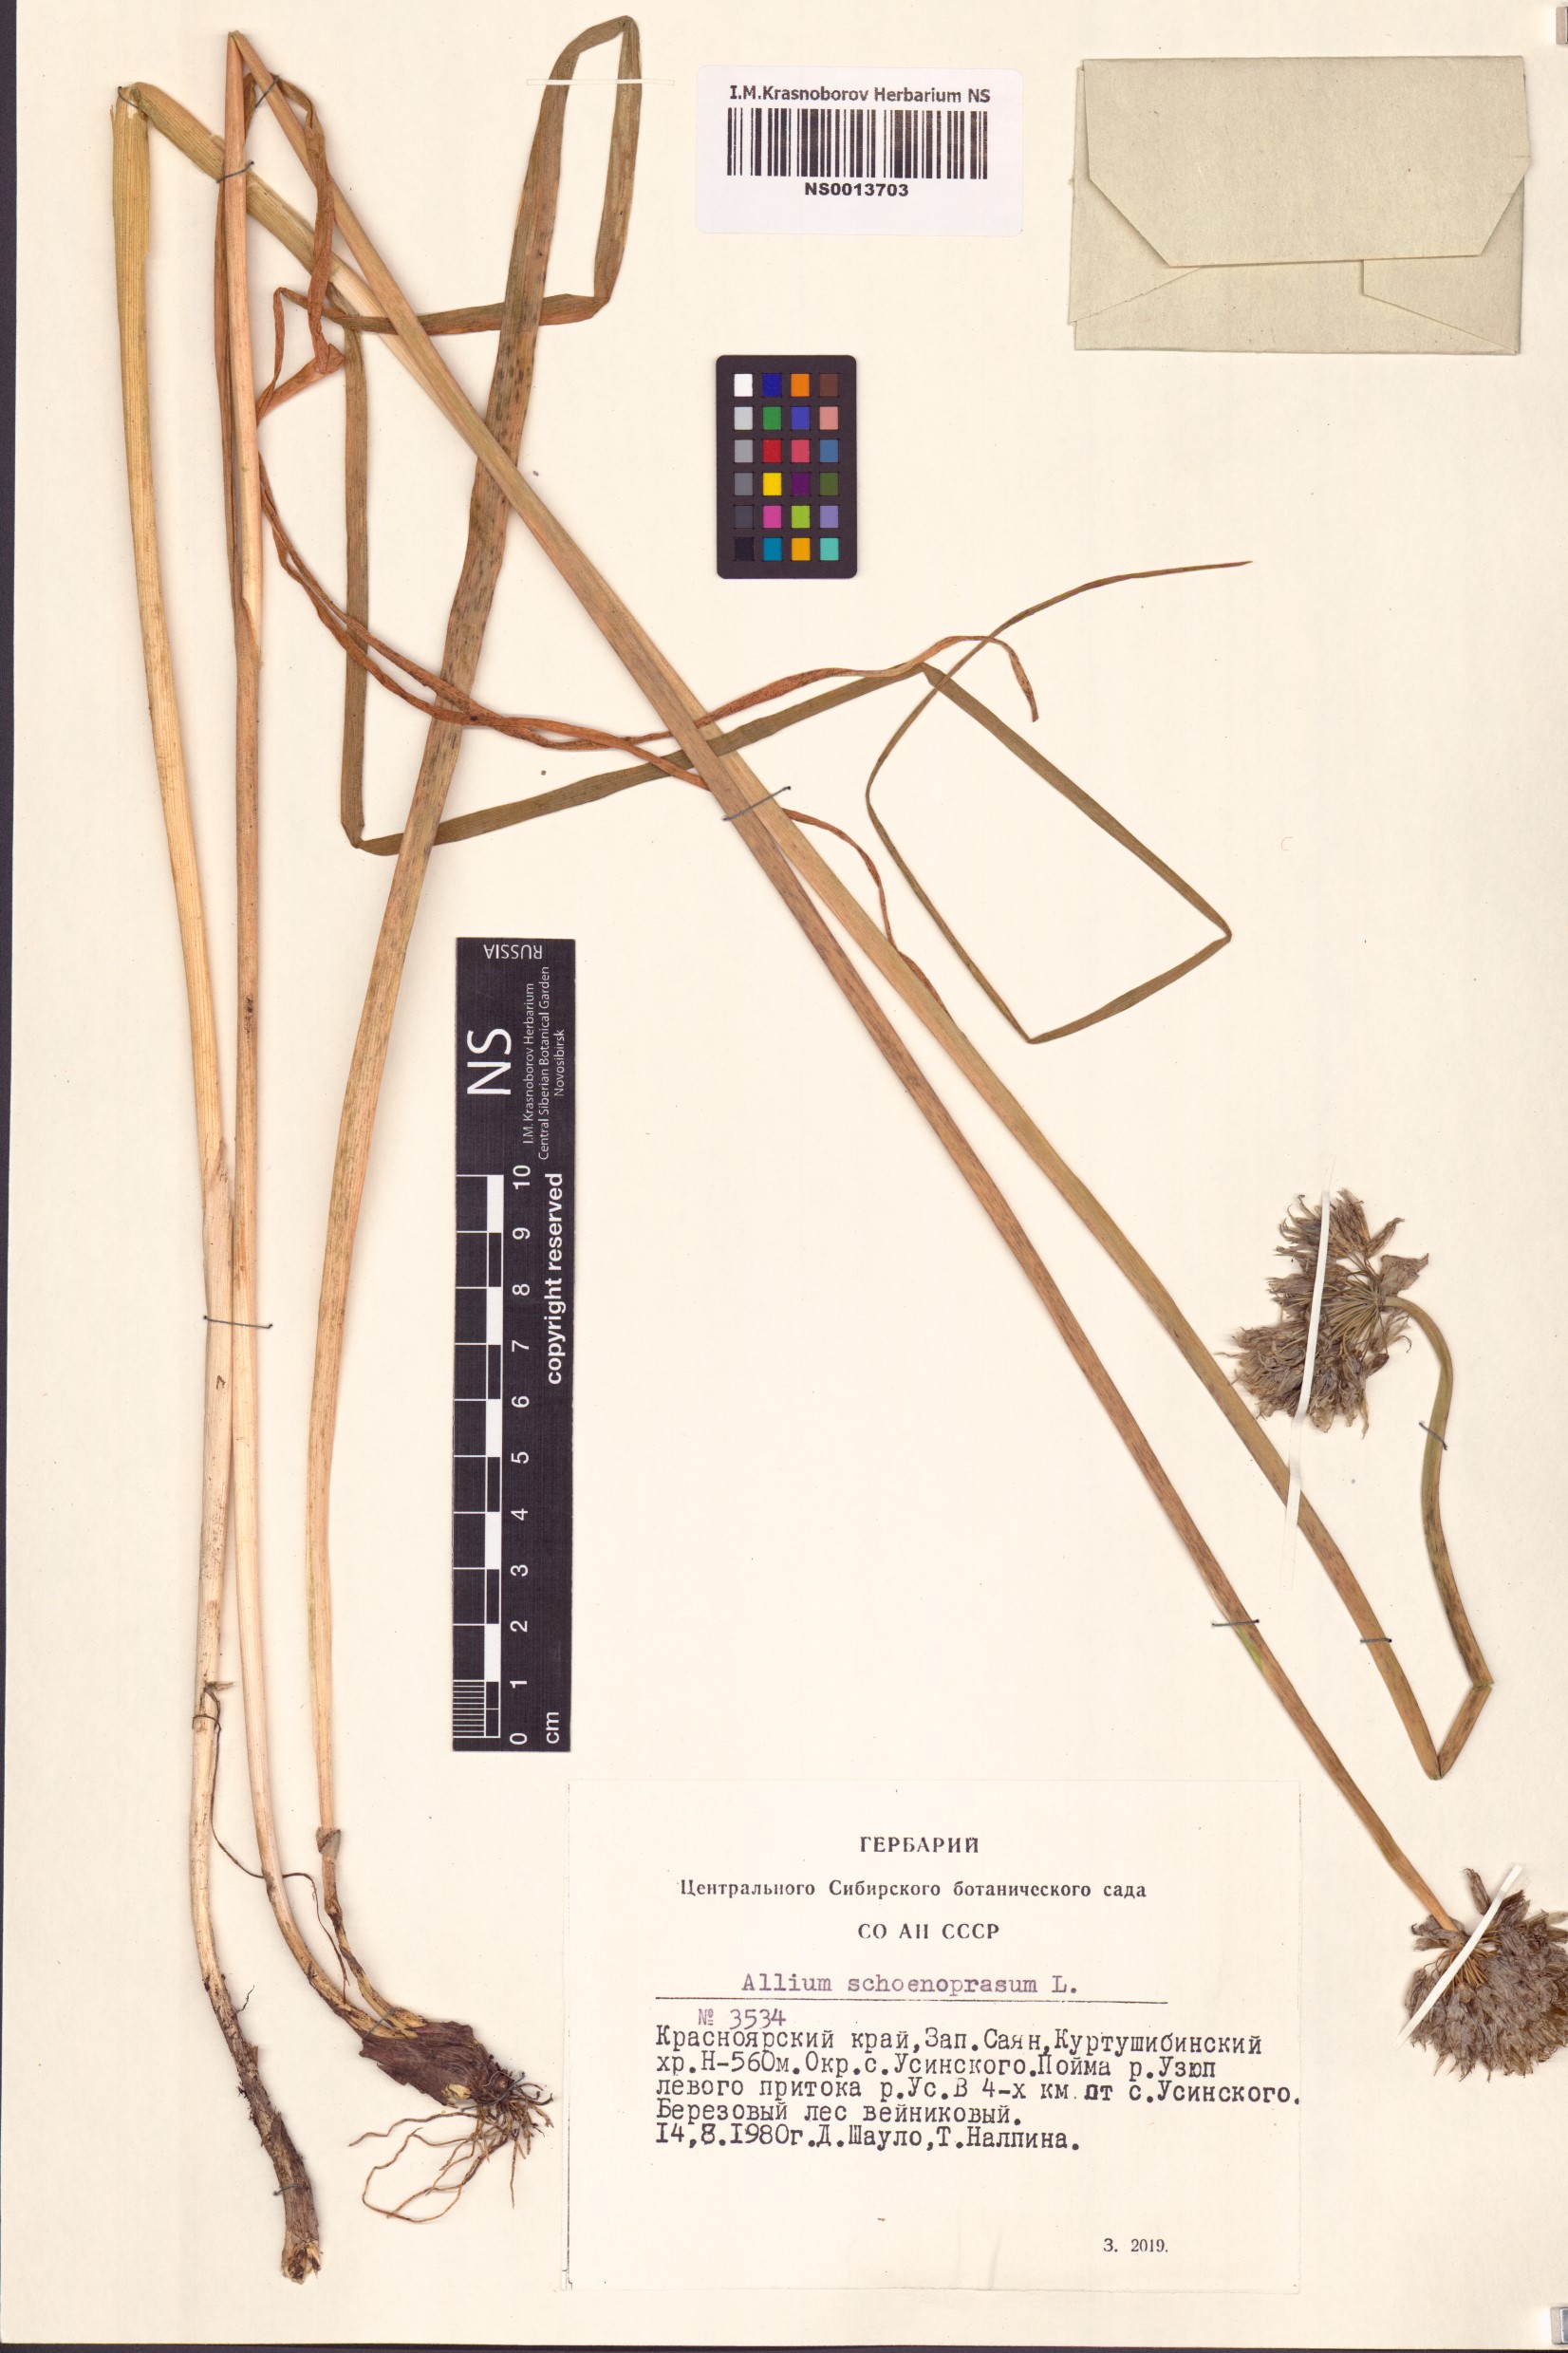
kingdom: Plantae
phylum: Tracheophyta
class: Liliopsida
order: Asparagales
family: Amaryllidaceae
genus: Allium
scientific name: Allium schoenoprasum
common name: Chives
